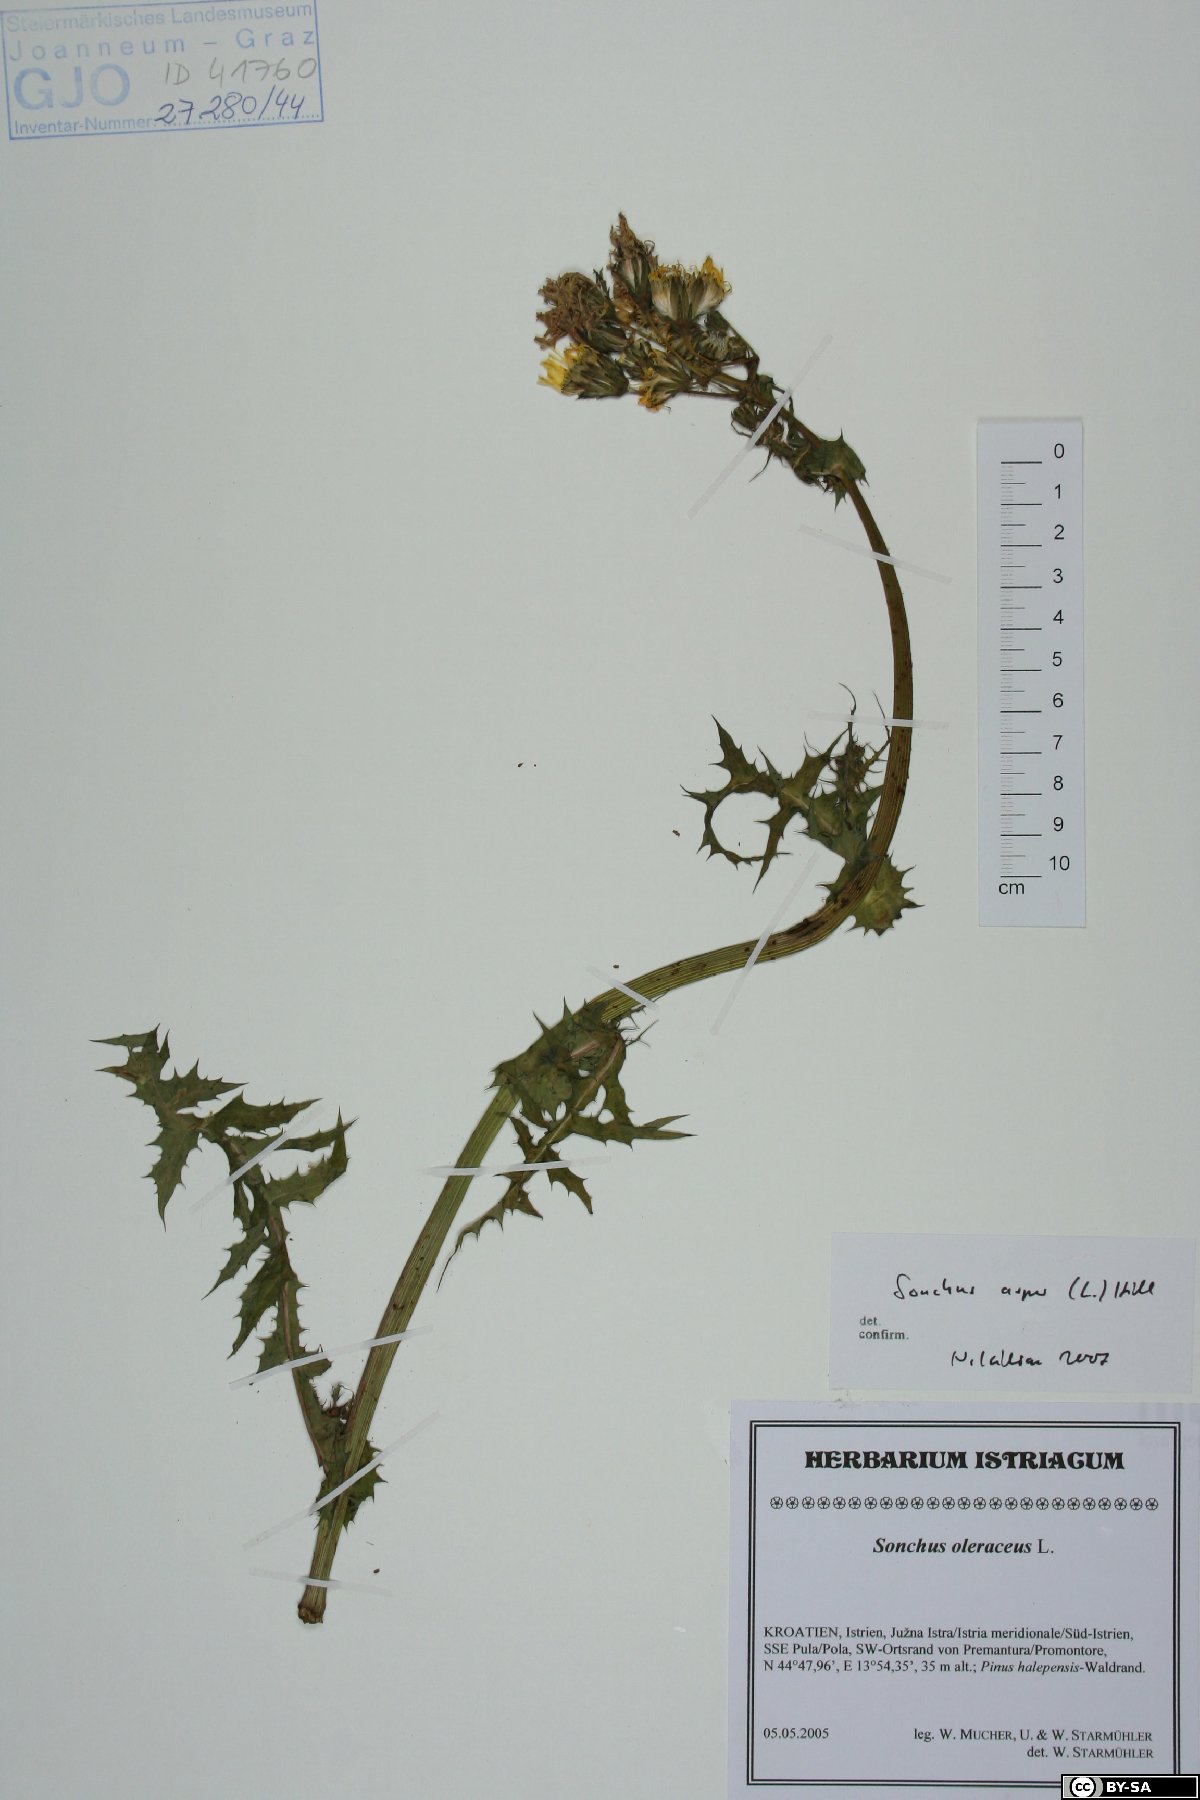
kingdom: Plantae
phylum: Tracheophyta
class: Magnoliopsida
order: Asterales
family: Asteraceae
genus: Sonchus
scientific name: Sonchus asper
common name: Prickly sow-thistle
